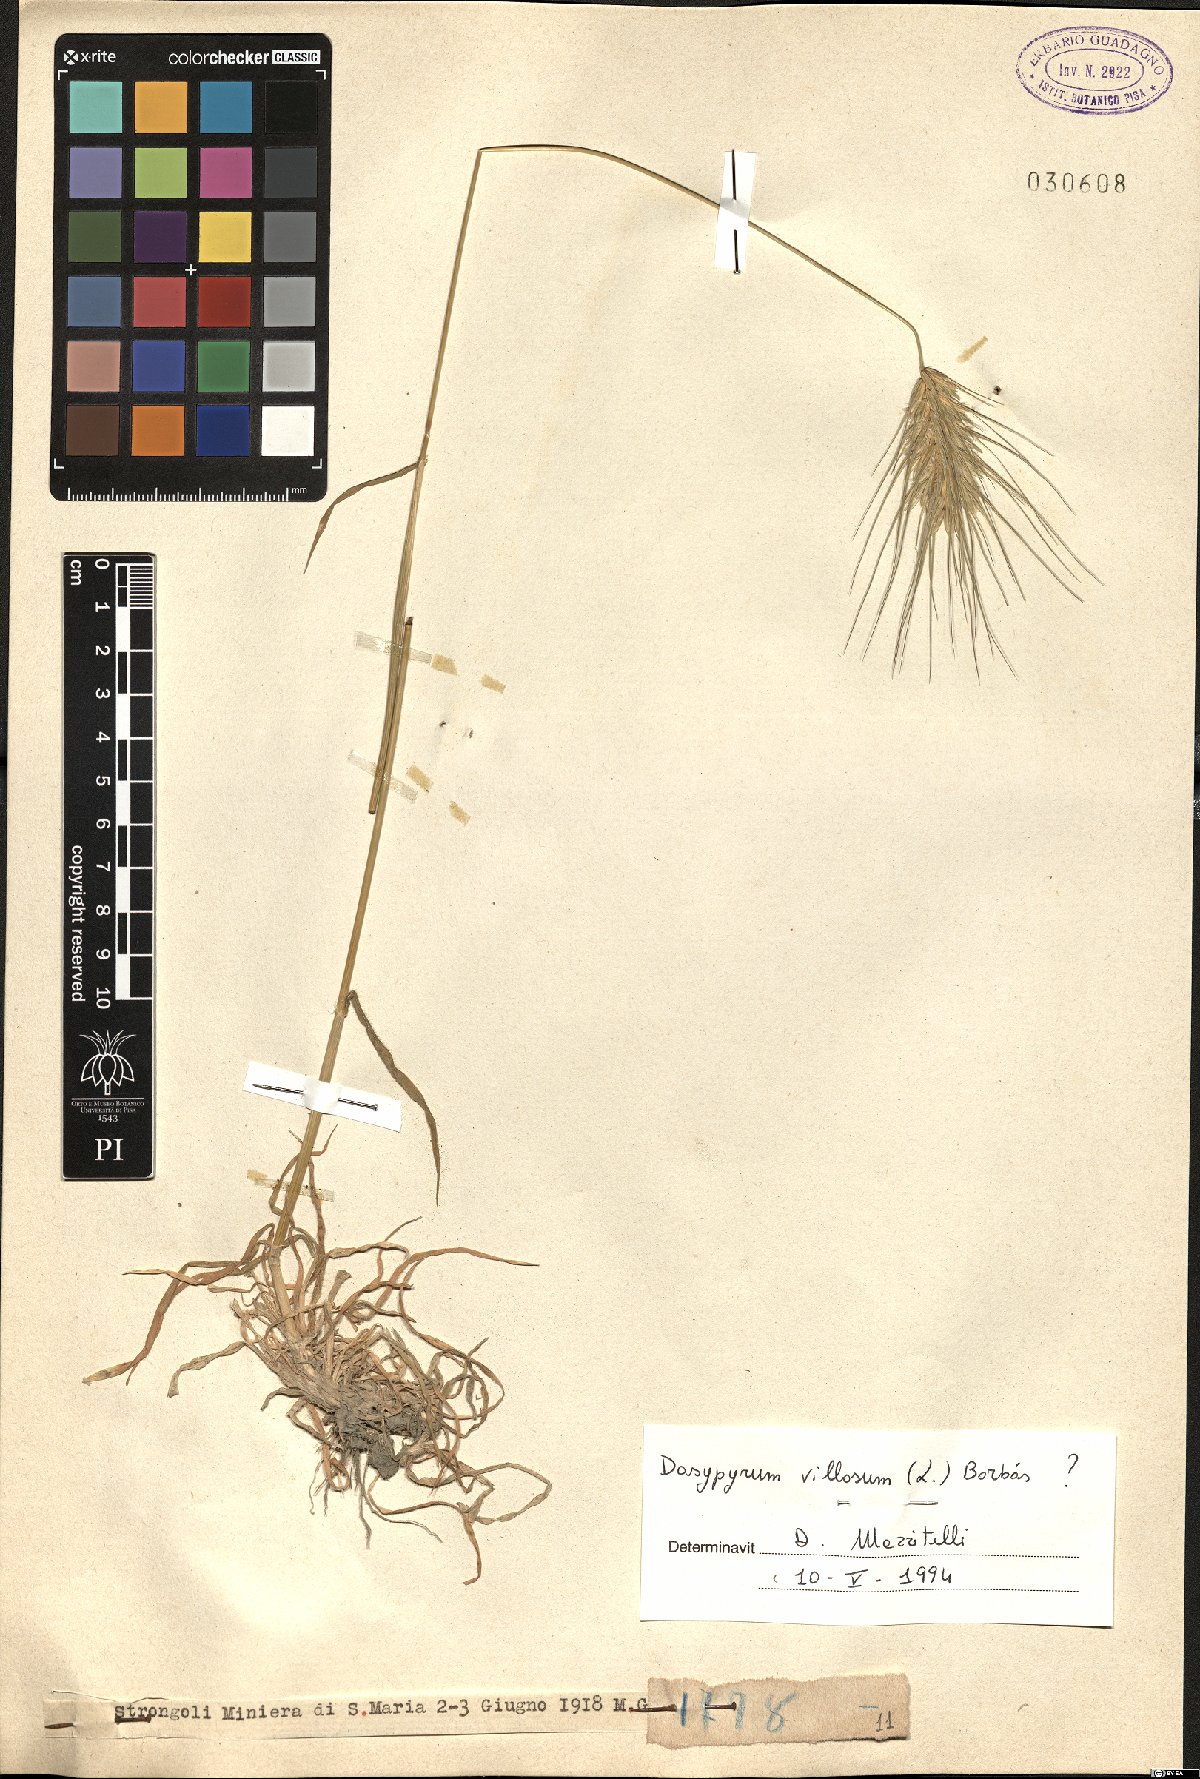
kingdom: Plantae
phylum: Tracheophyta
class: Liliopsida
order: Poales
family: Poaceae
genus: Dasypyrum
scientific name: Dasypyrum villosum
